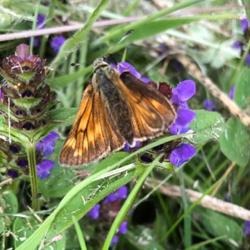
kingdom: Animalia
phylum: Arthropoda
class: Insecta
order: Lepidoptera
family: Hesperiidae
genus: Ochlodes
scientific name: Ochlodes venata
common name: Stor bredpande
